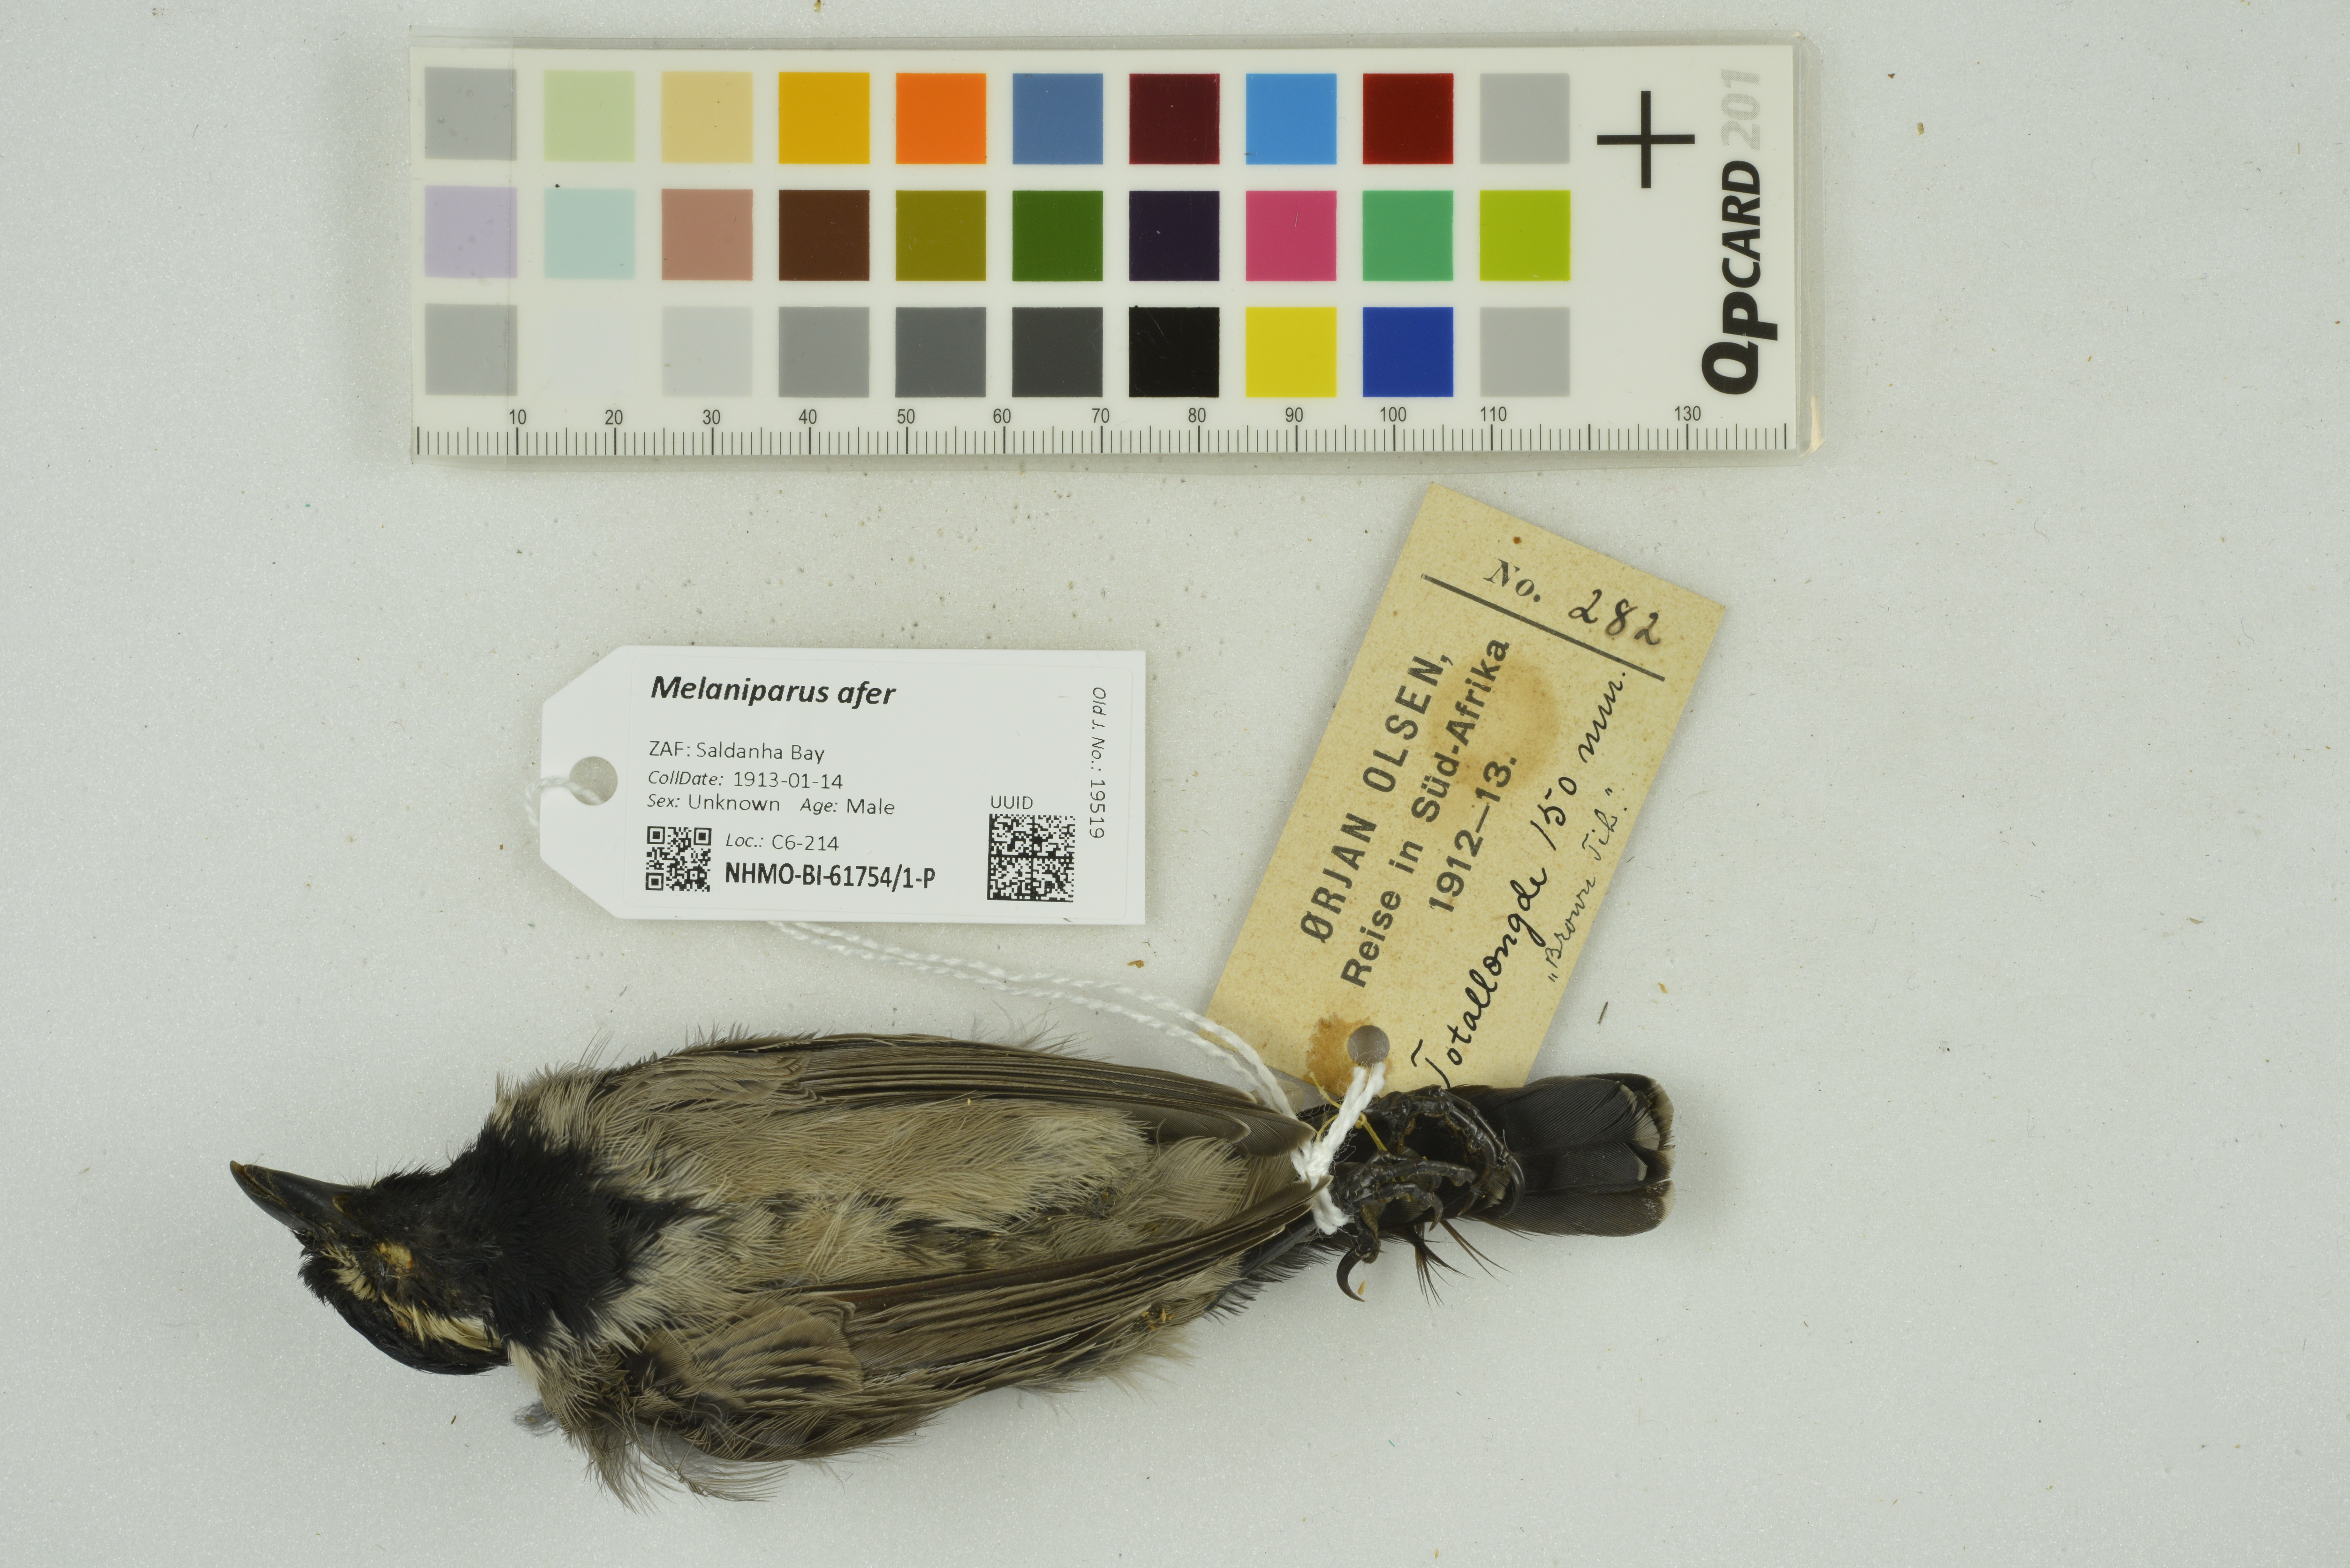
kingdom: Animalia
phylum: Chordata
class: Aves
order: Passeriformes
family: Paridae
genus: Parus
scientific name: Parus afer
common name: Grey tit
